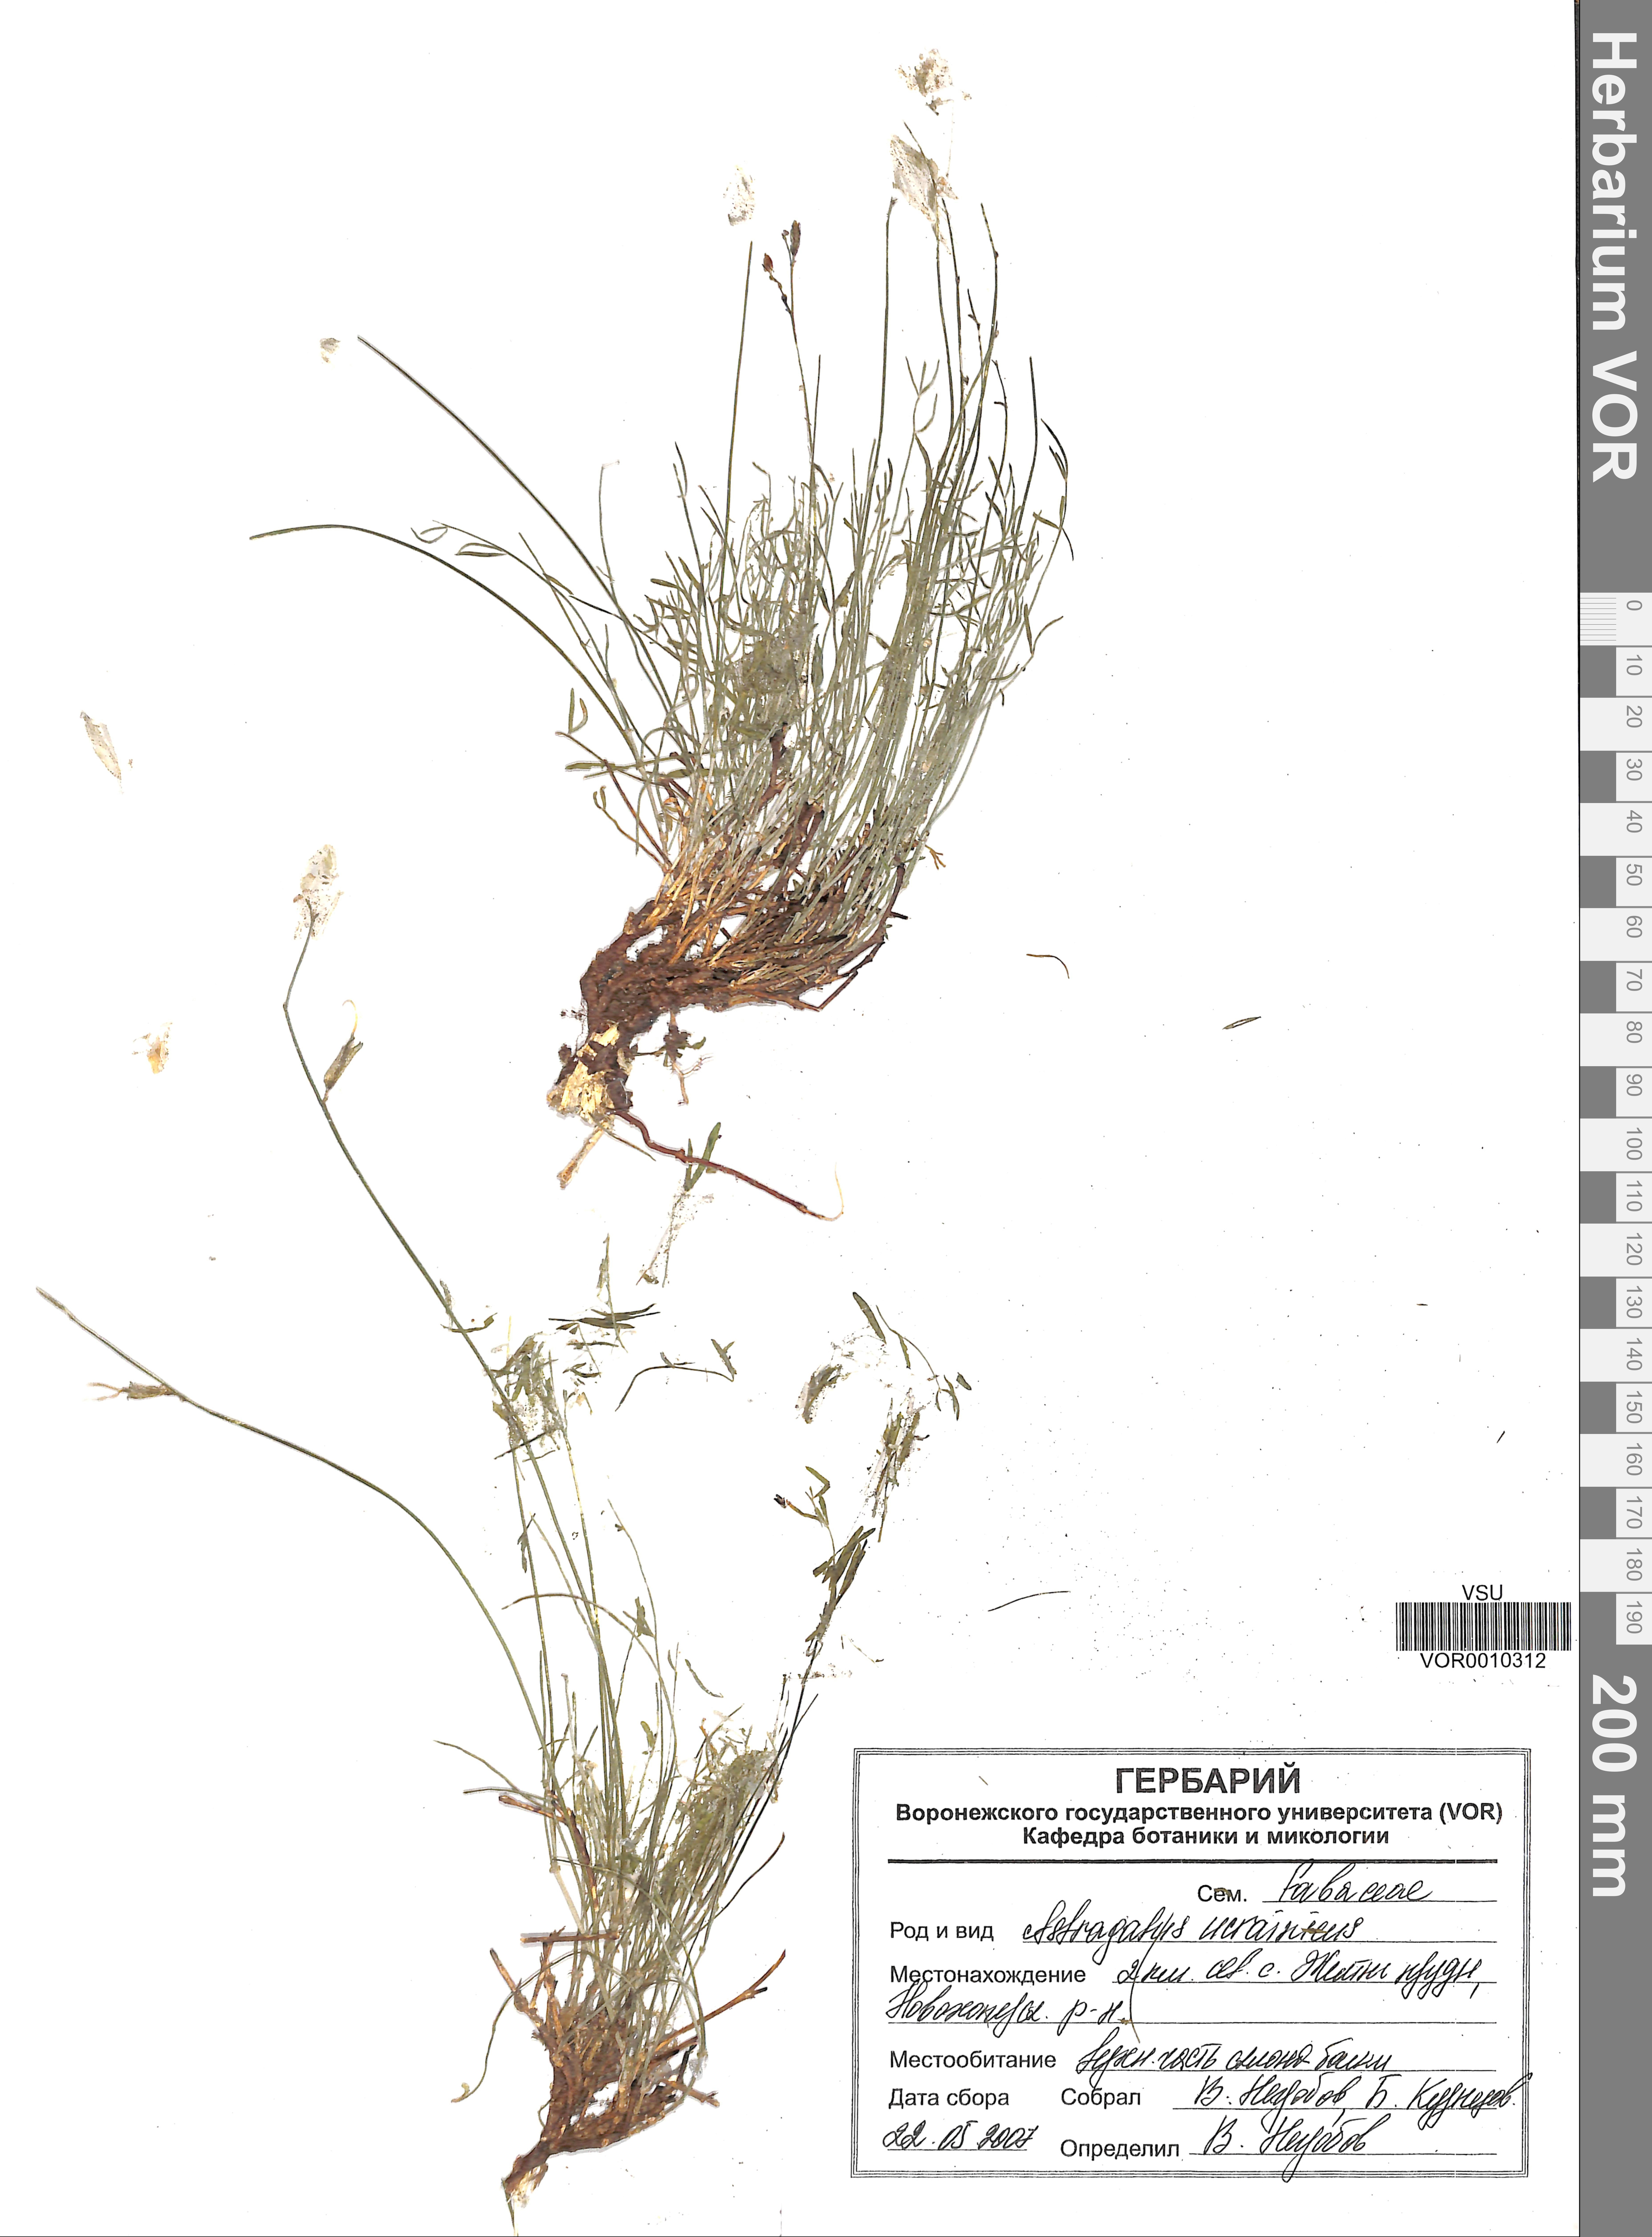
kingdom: Plantae
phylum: Tracheophyta
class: Magnoliopsida
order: Fabales
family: Fabaceae
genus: Astragalus
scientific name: Astragalus ucrainicus
